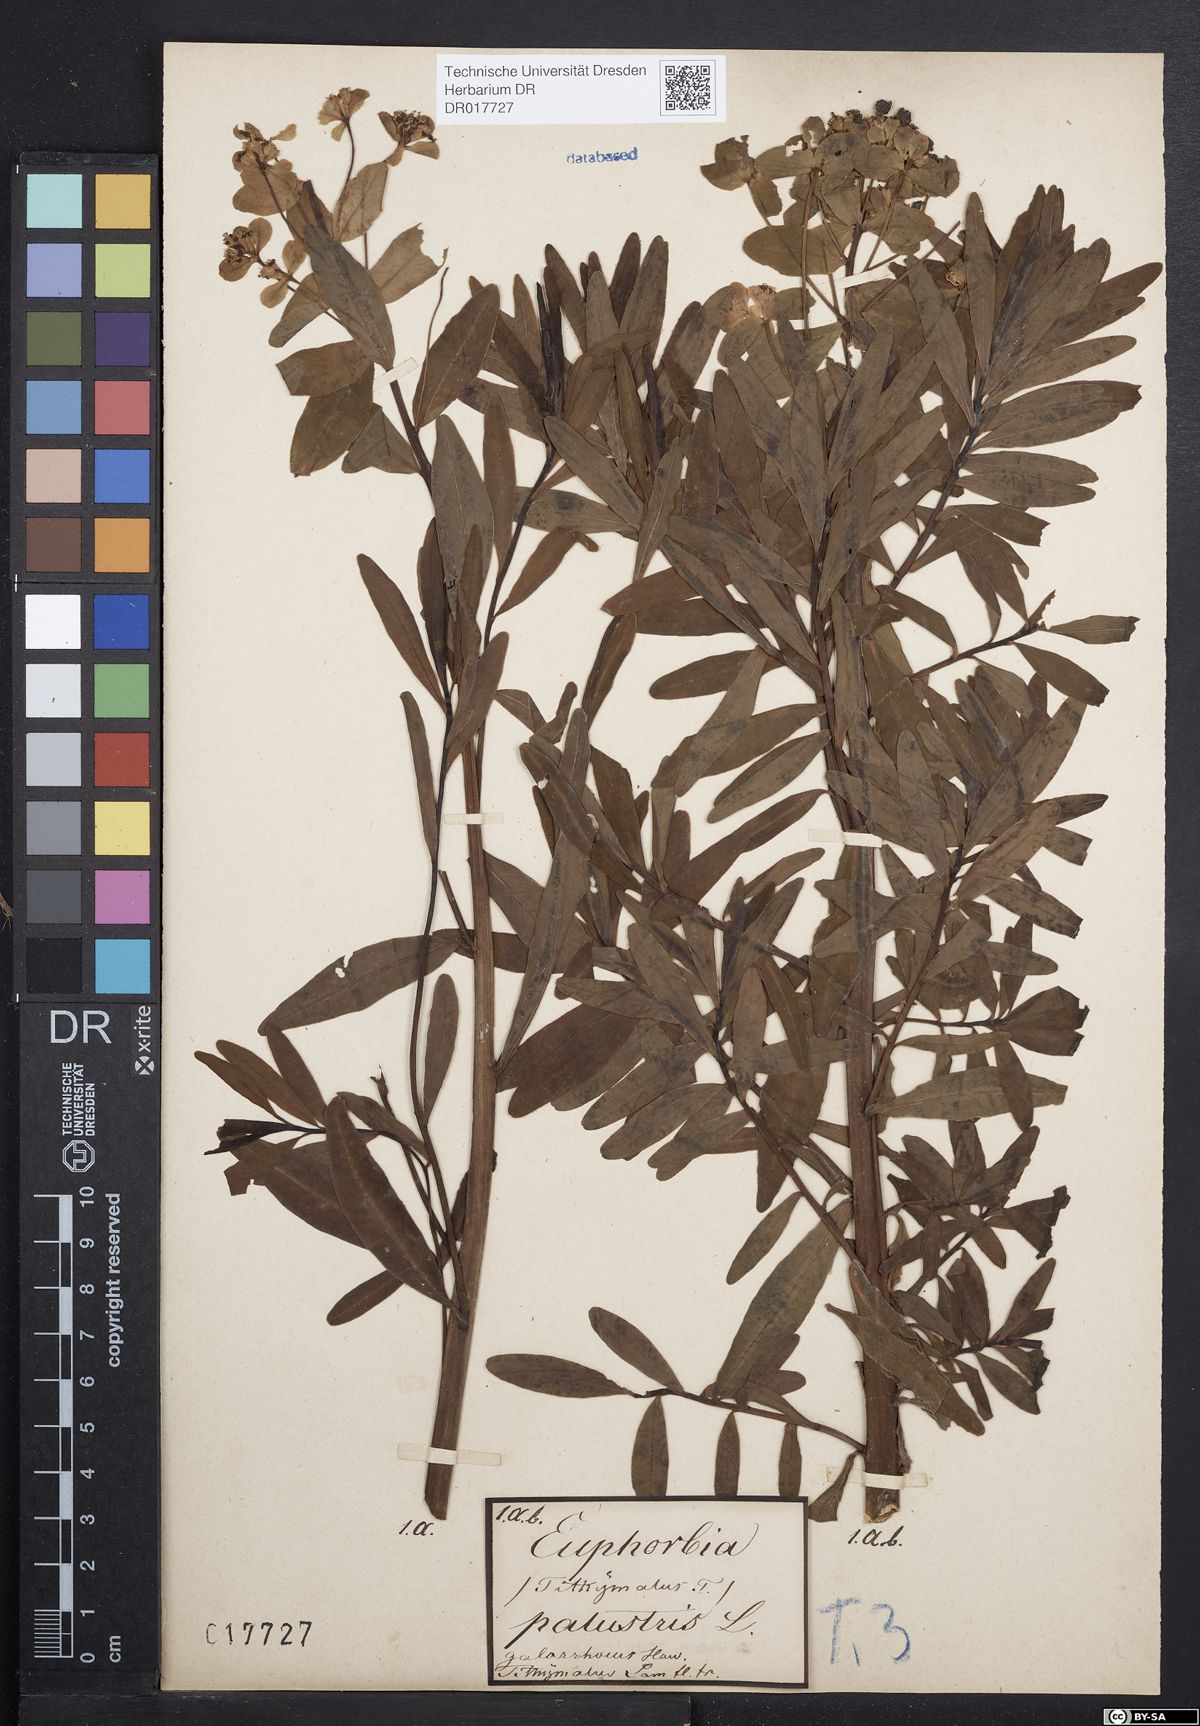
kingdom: Plantae
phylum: Tracheophyta
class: Magnoliopsida
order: Malpighiales
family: Euphorbiaceae
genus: Euphorbia
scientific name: Euphorbia palustris
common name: Marsh spurge
